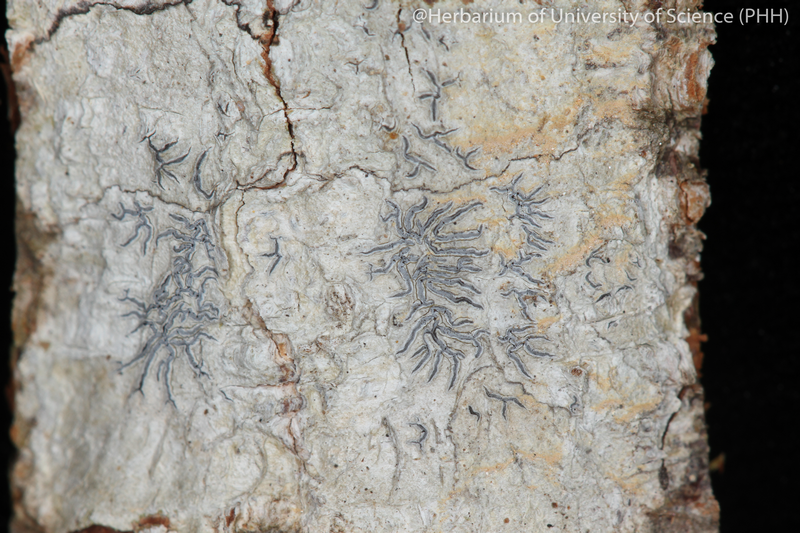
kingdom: Fungi
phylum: Ascomycota
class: Lecanoromycetes
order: Ostropales
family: Graphidaceae
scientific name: Graphidaceae
